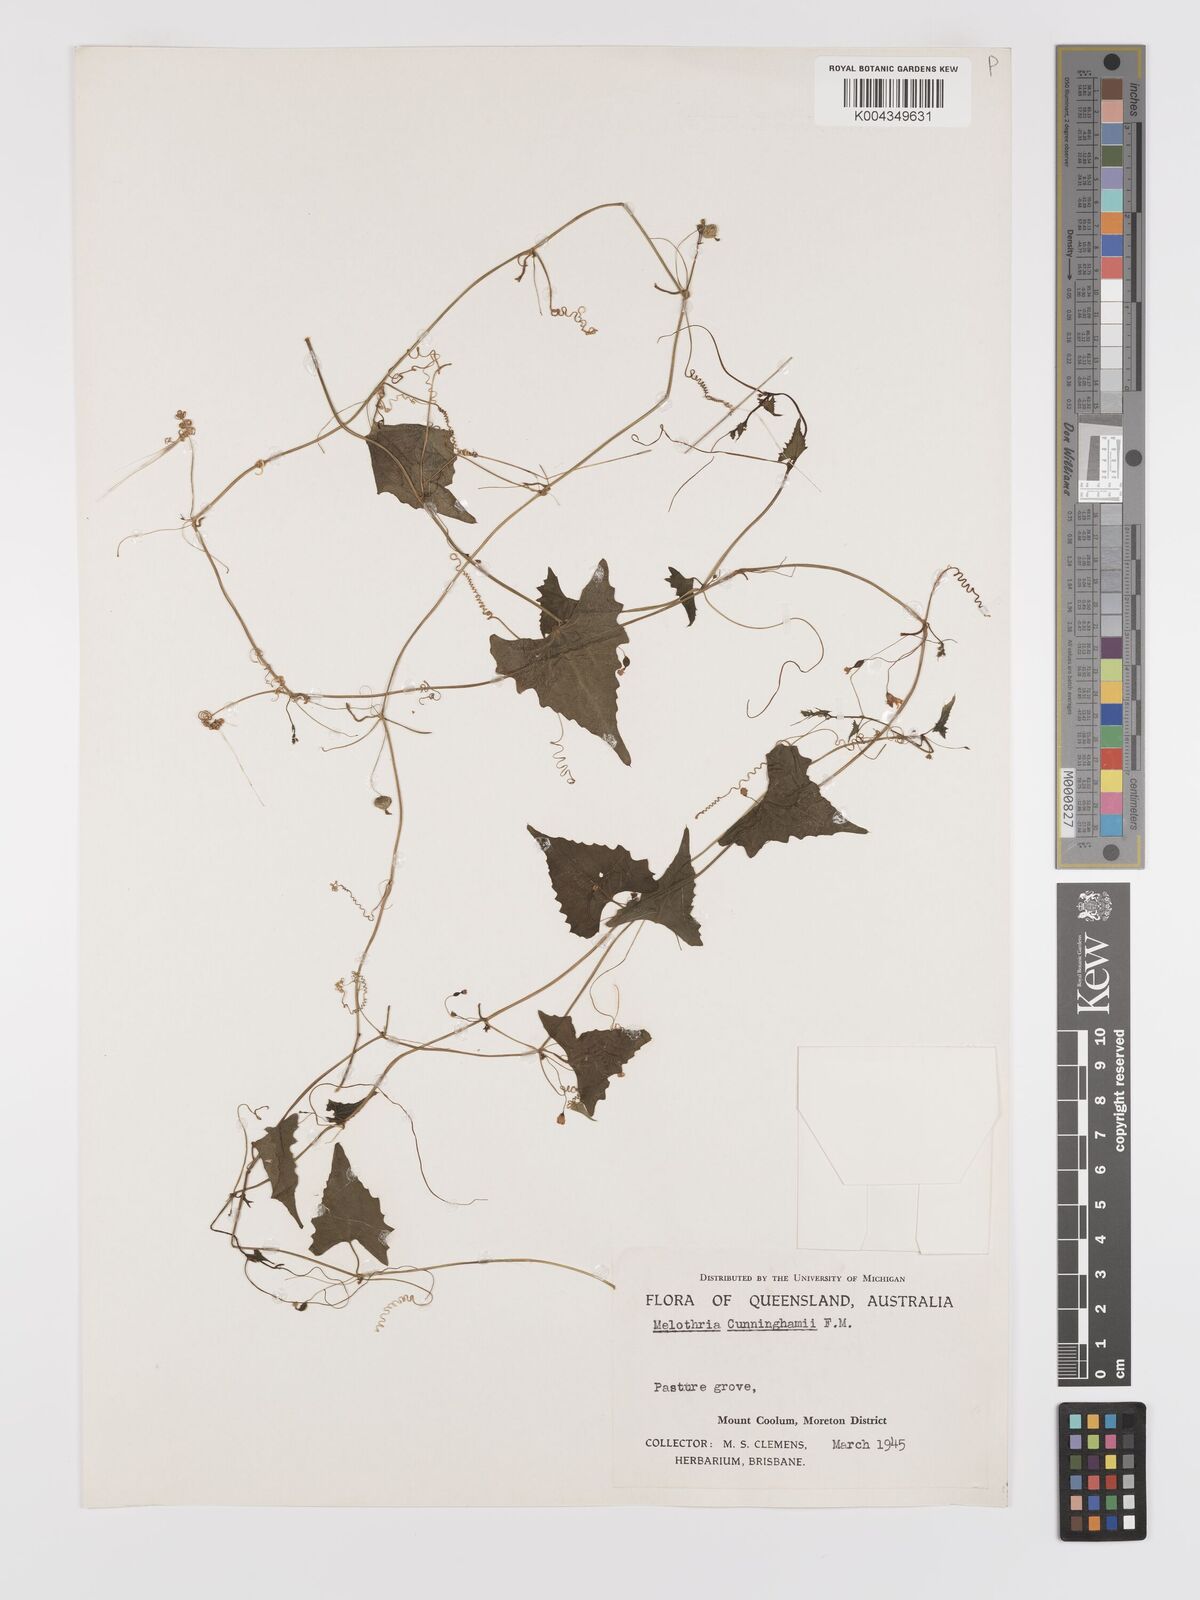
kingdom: Plantae
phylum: Tracheophyta
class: Magnoliopsida
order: Cucurbitales
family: Cucurbitaceae
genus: Zehneria
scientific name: Zehneria cunninghamii
